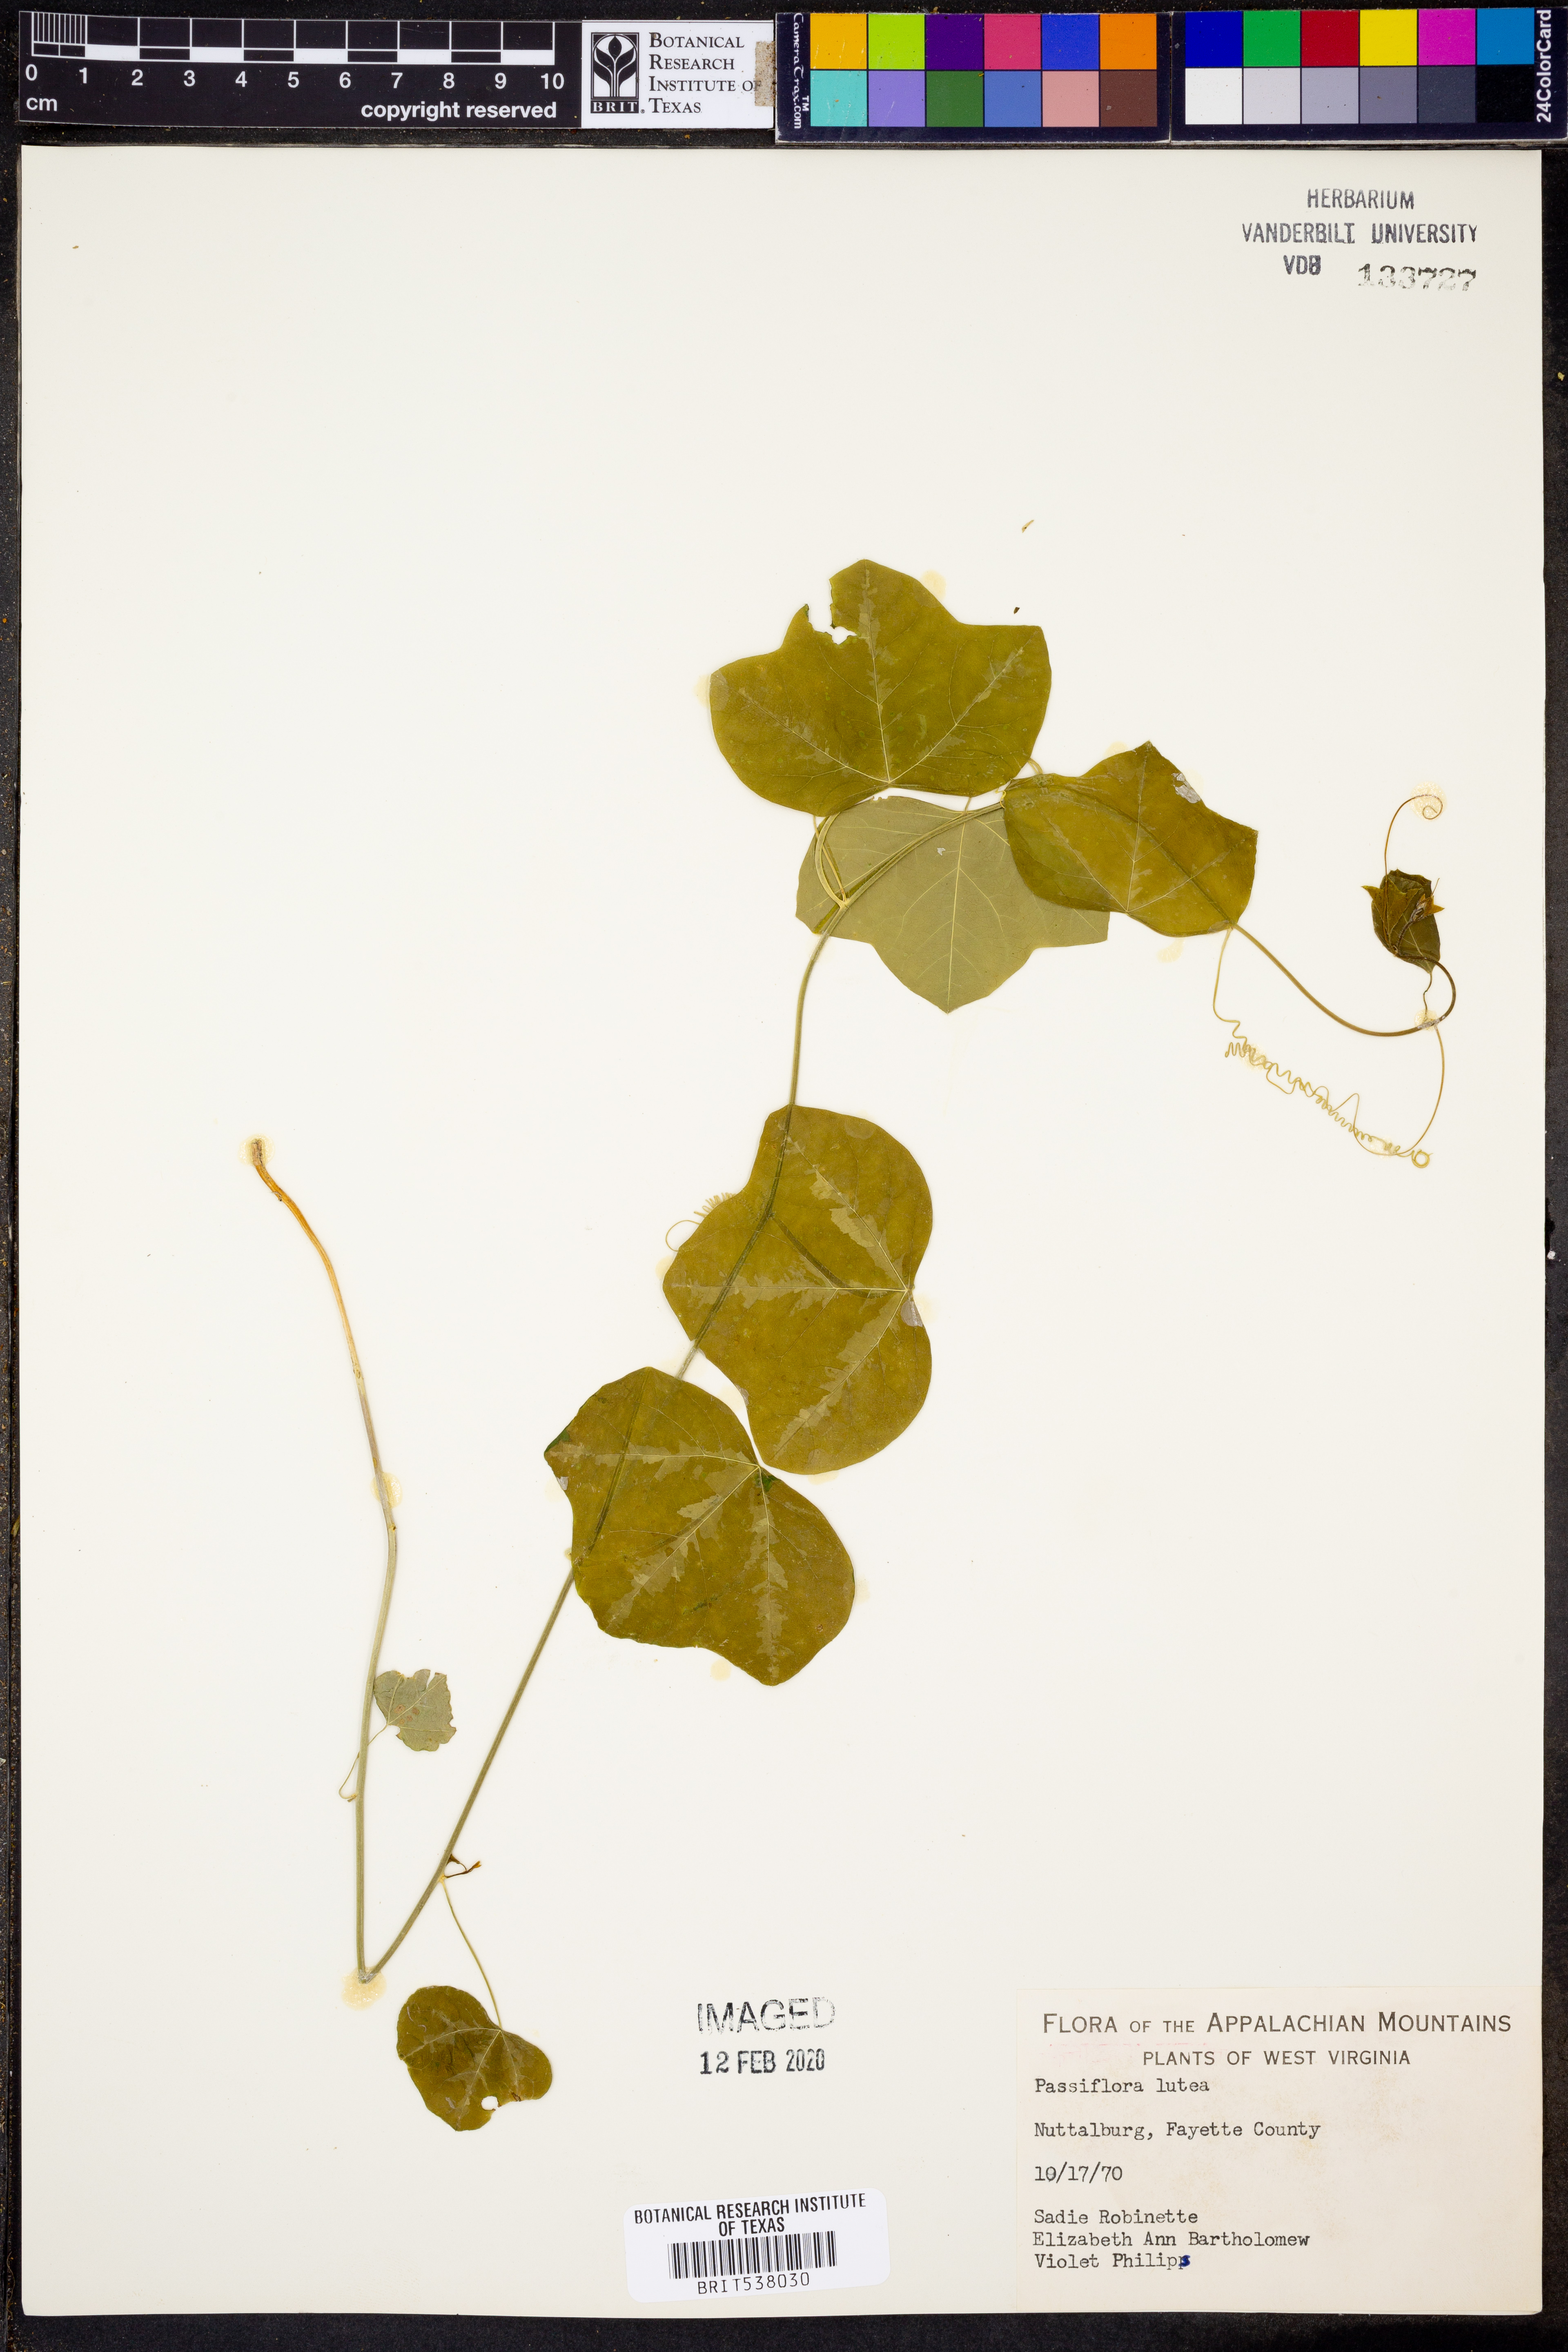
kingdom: Plantae
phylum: Tracheophyta
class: Magnoliopsida
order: Malpighiales
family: Passifloraceae
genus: Passiflora
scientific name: Passiflora lutea
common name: Yellow passionflower
